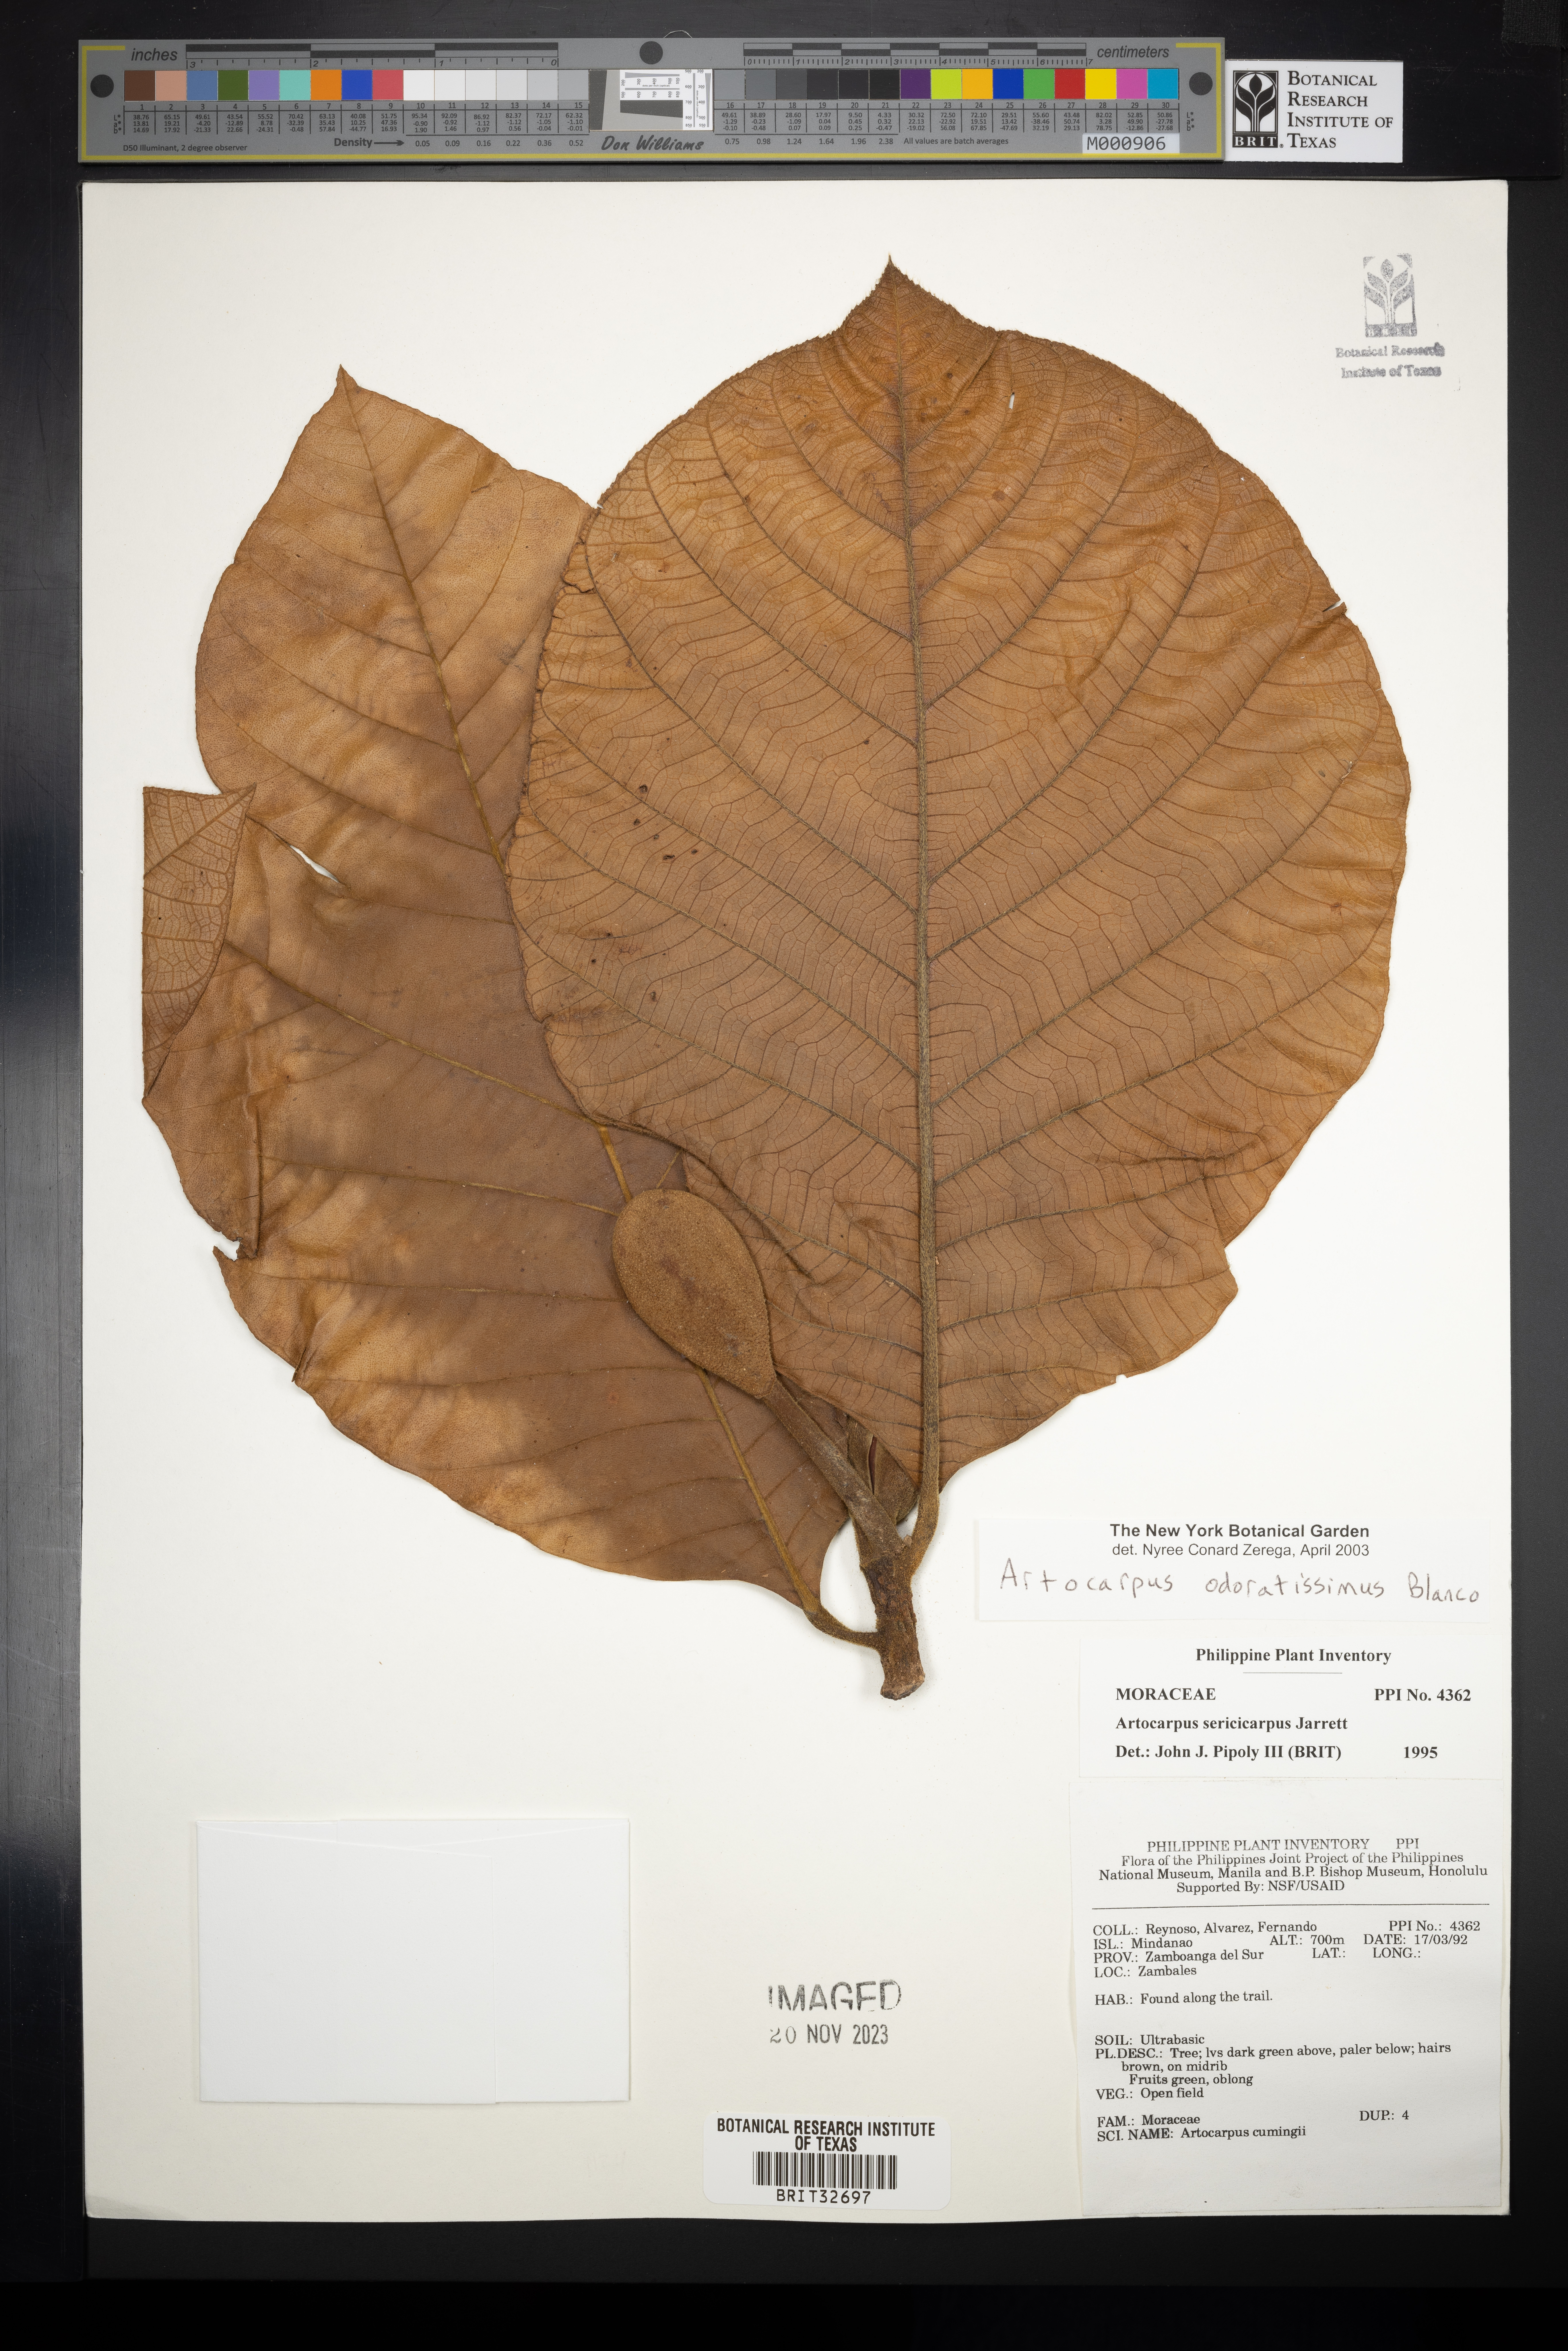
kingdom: Plantae
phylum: Tracheophyta
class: Magnoliopsida
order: Rosales
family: Moraceae
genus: Artocarpus
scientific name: Artocarpus odoratissimus
